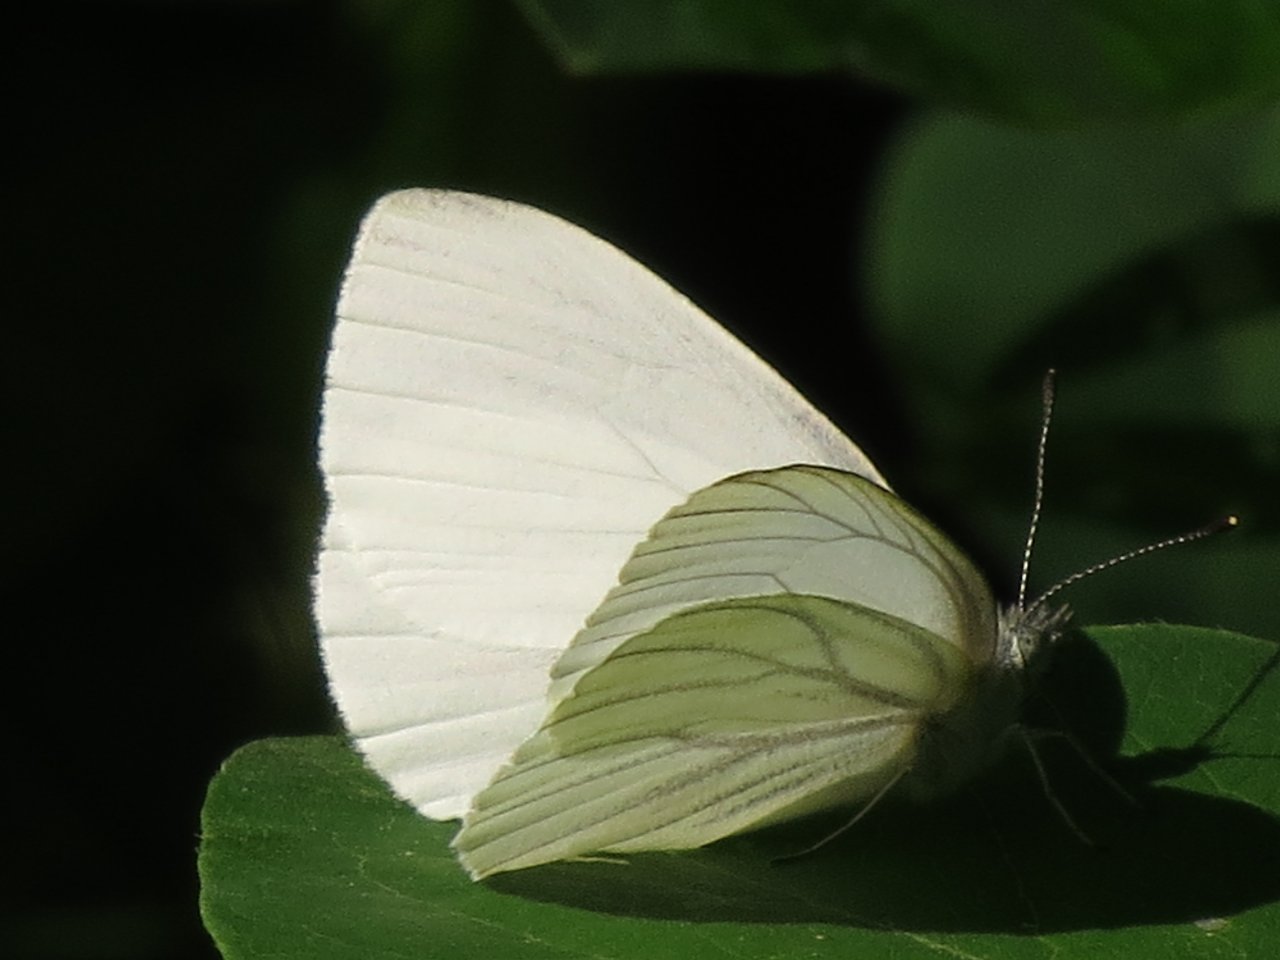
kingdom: Animalia
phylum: Arthropoda
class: Insecta
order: Lepidoptera
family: Pieridae
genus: Pieris
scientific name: Pieris oleracea
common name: Mustard White
